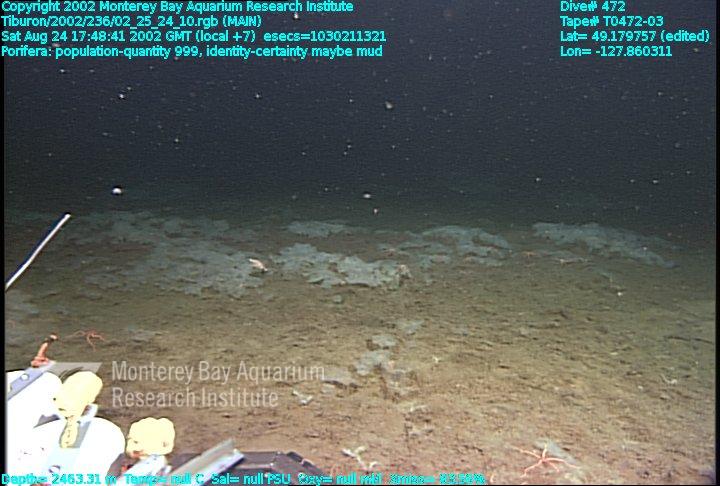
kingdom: Animalia
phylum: Porifera
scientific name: Porifera
